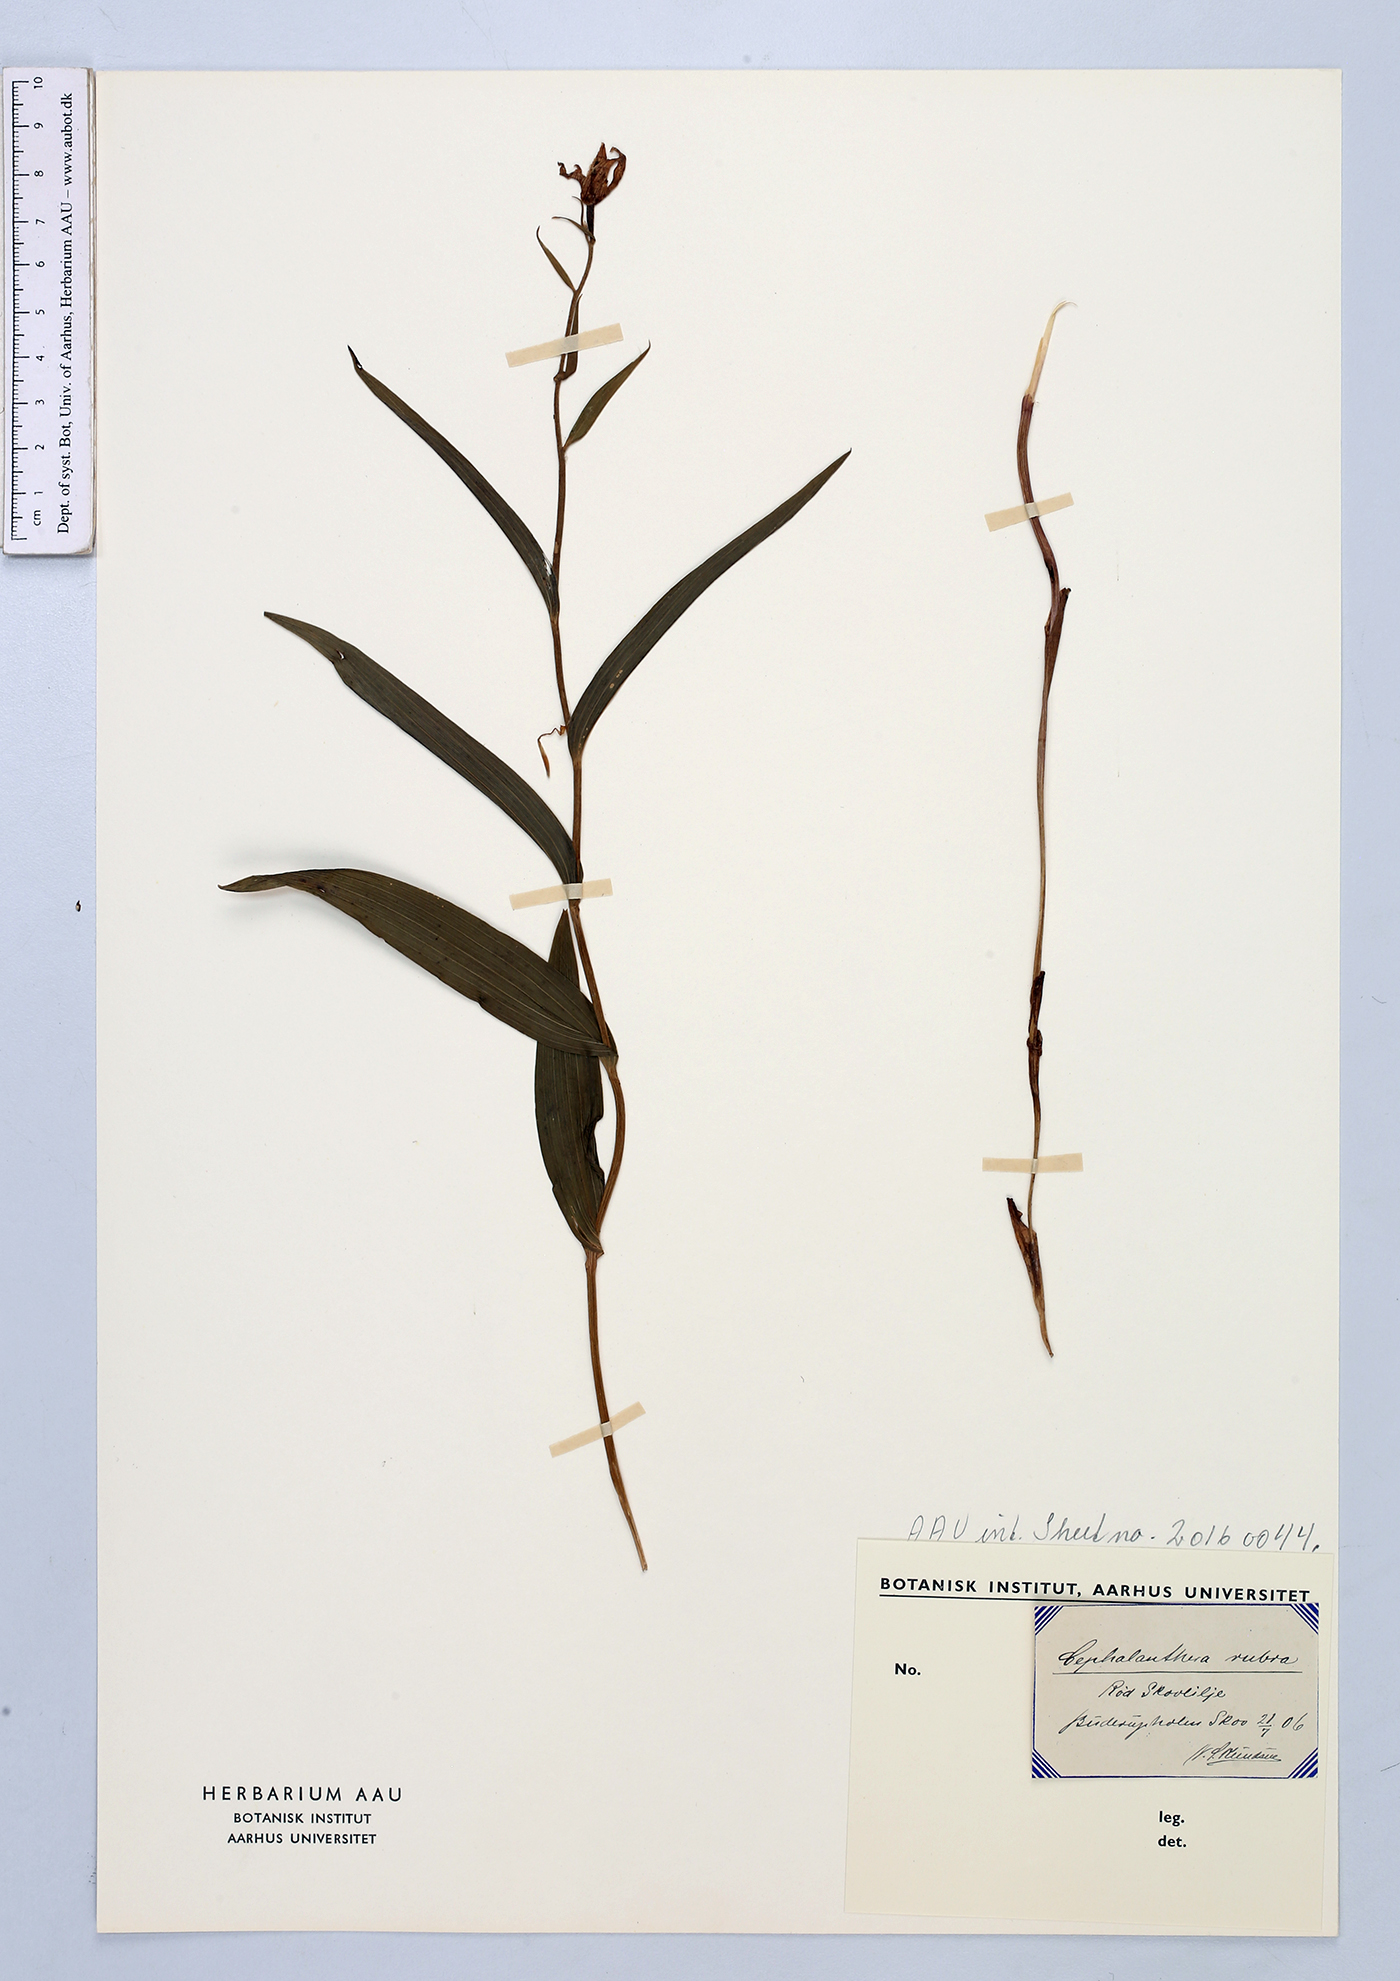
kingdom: Plantae
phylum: Tracheophyta
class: Liliopsida
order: Asparagales
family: Orchidaceae
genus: Cephalanthera
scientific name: Cephalanthera rubra
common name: Red helleborine
